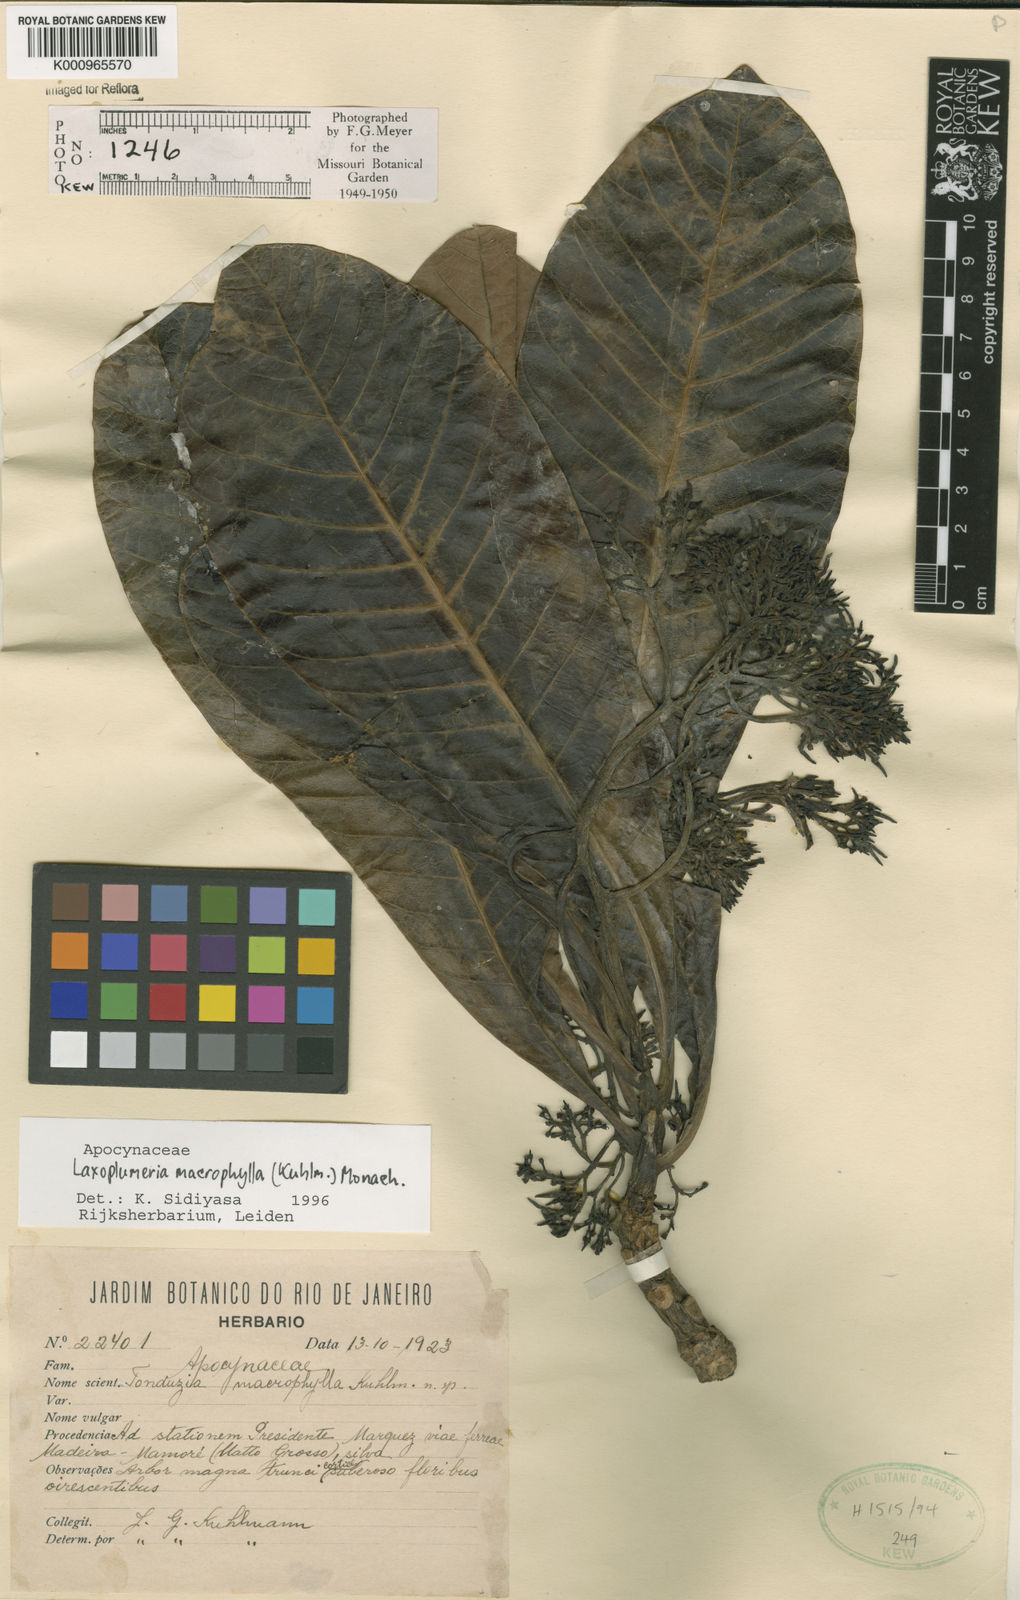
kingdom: Plantae
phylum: Tracheophyta
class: Magnoliopsida
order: Gentianales
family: Apocynaceae
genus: Laxoplumeria
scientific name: Laxoplumeria macrophylla
